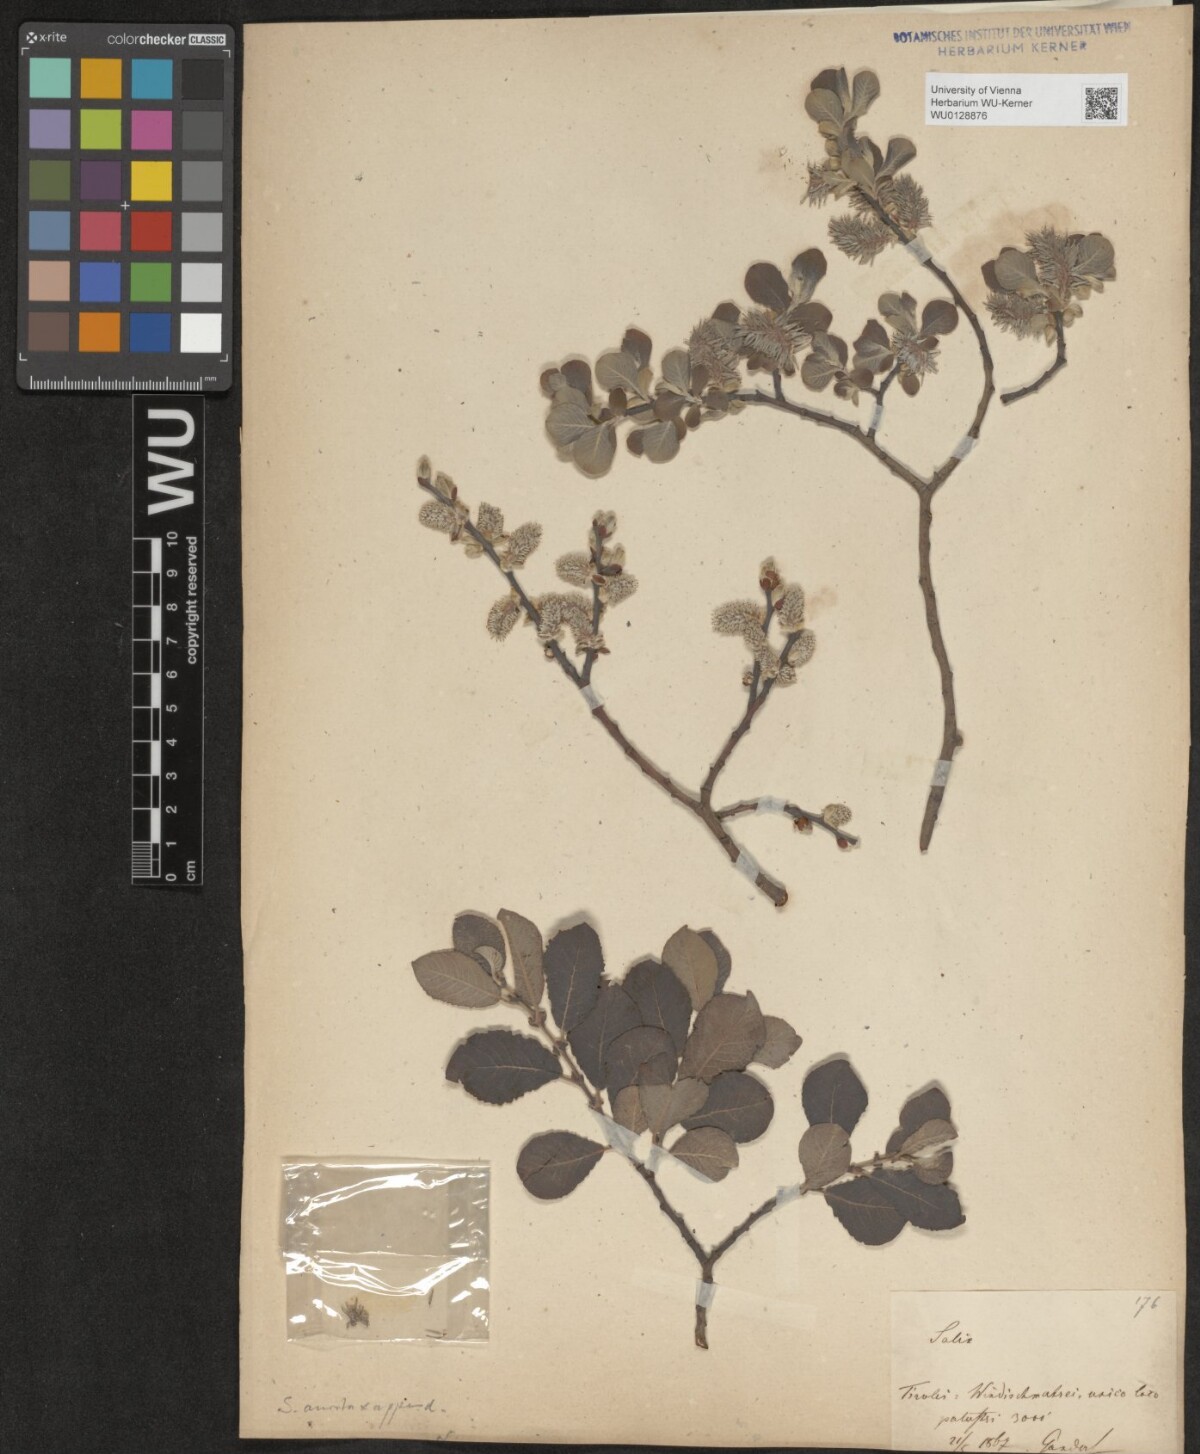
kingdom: Plantae
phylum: Tracheophyta
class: Magnoliopsida
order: Malpighiales
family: Salicaceae
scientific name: Salicaceae
